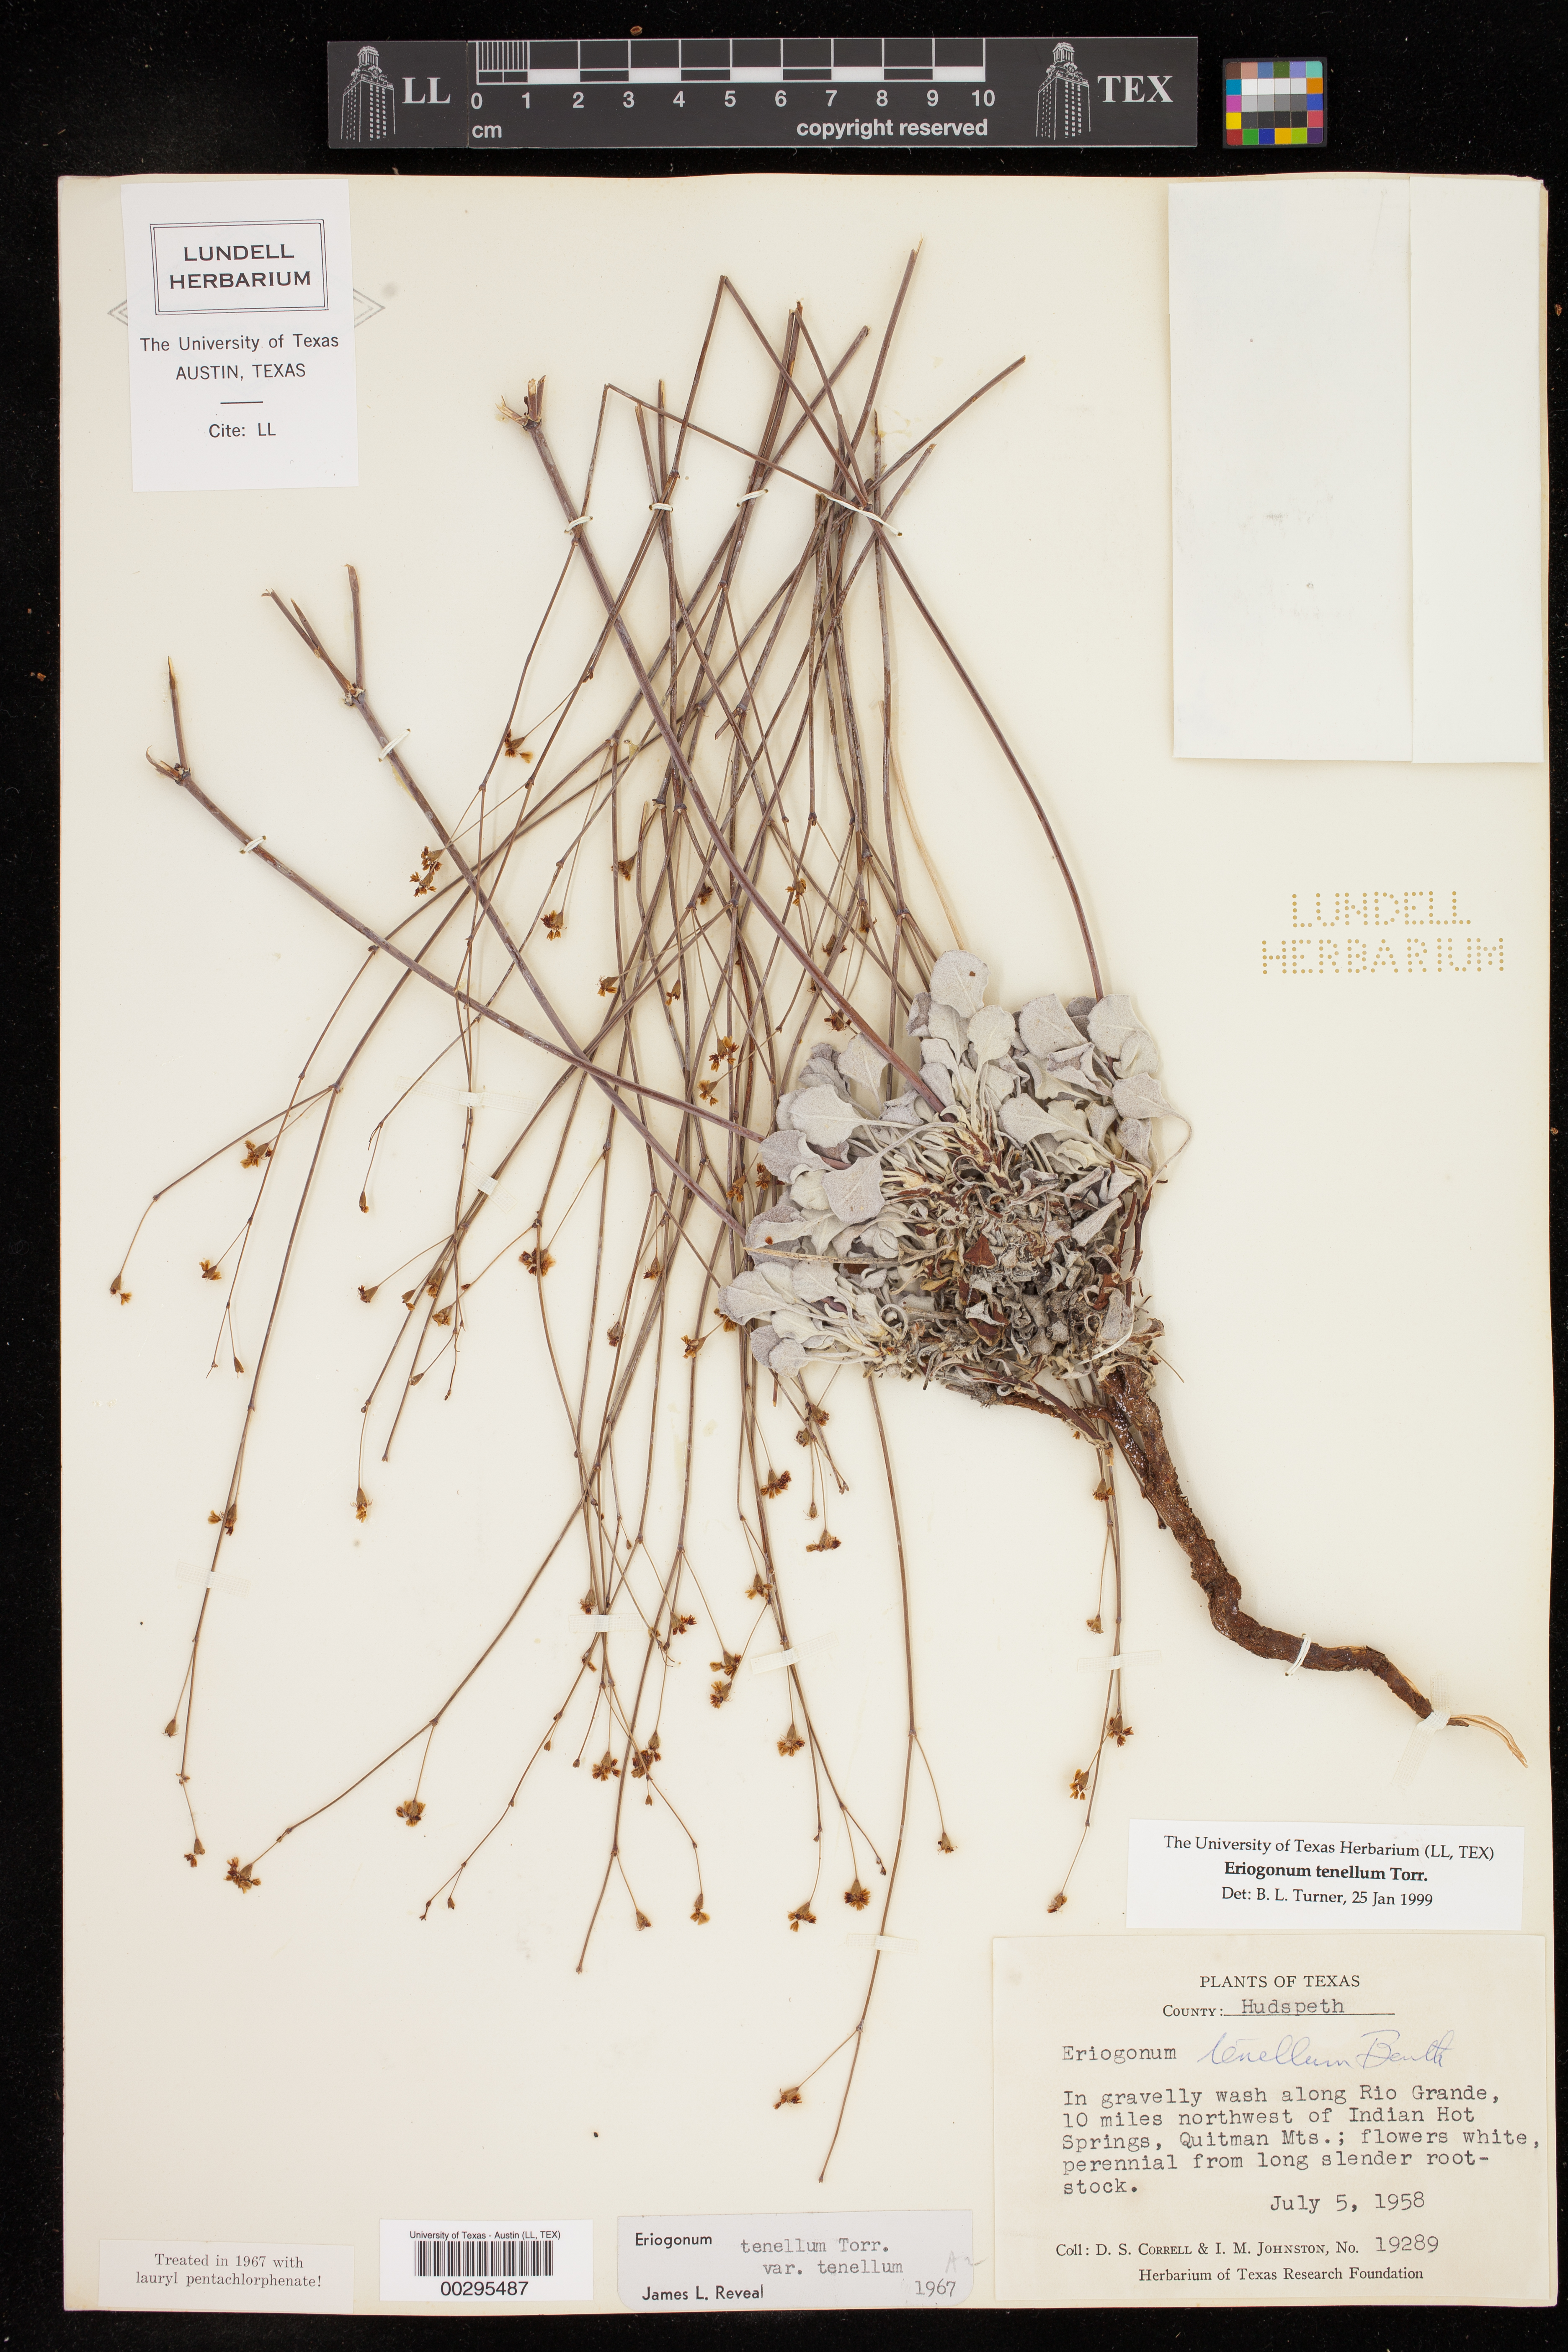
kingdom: Plantae
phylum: Tracheophyta
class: Magnoliopsida
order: Caryophyllales
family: Polygonaceae
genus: Eriogonum
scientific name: Eriogonum tenellum
